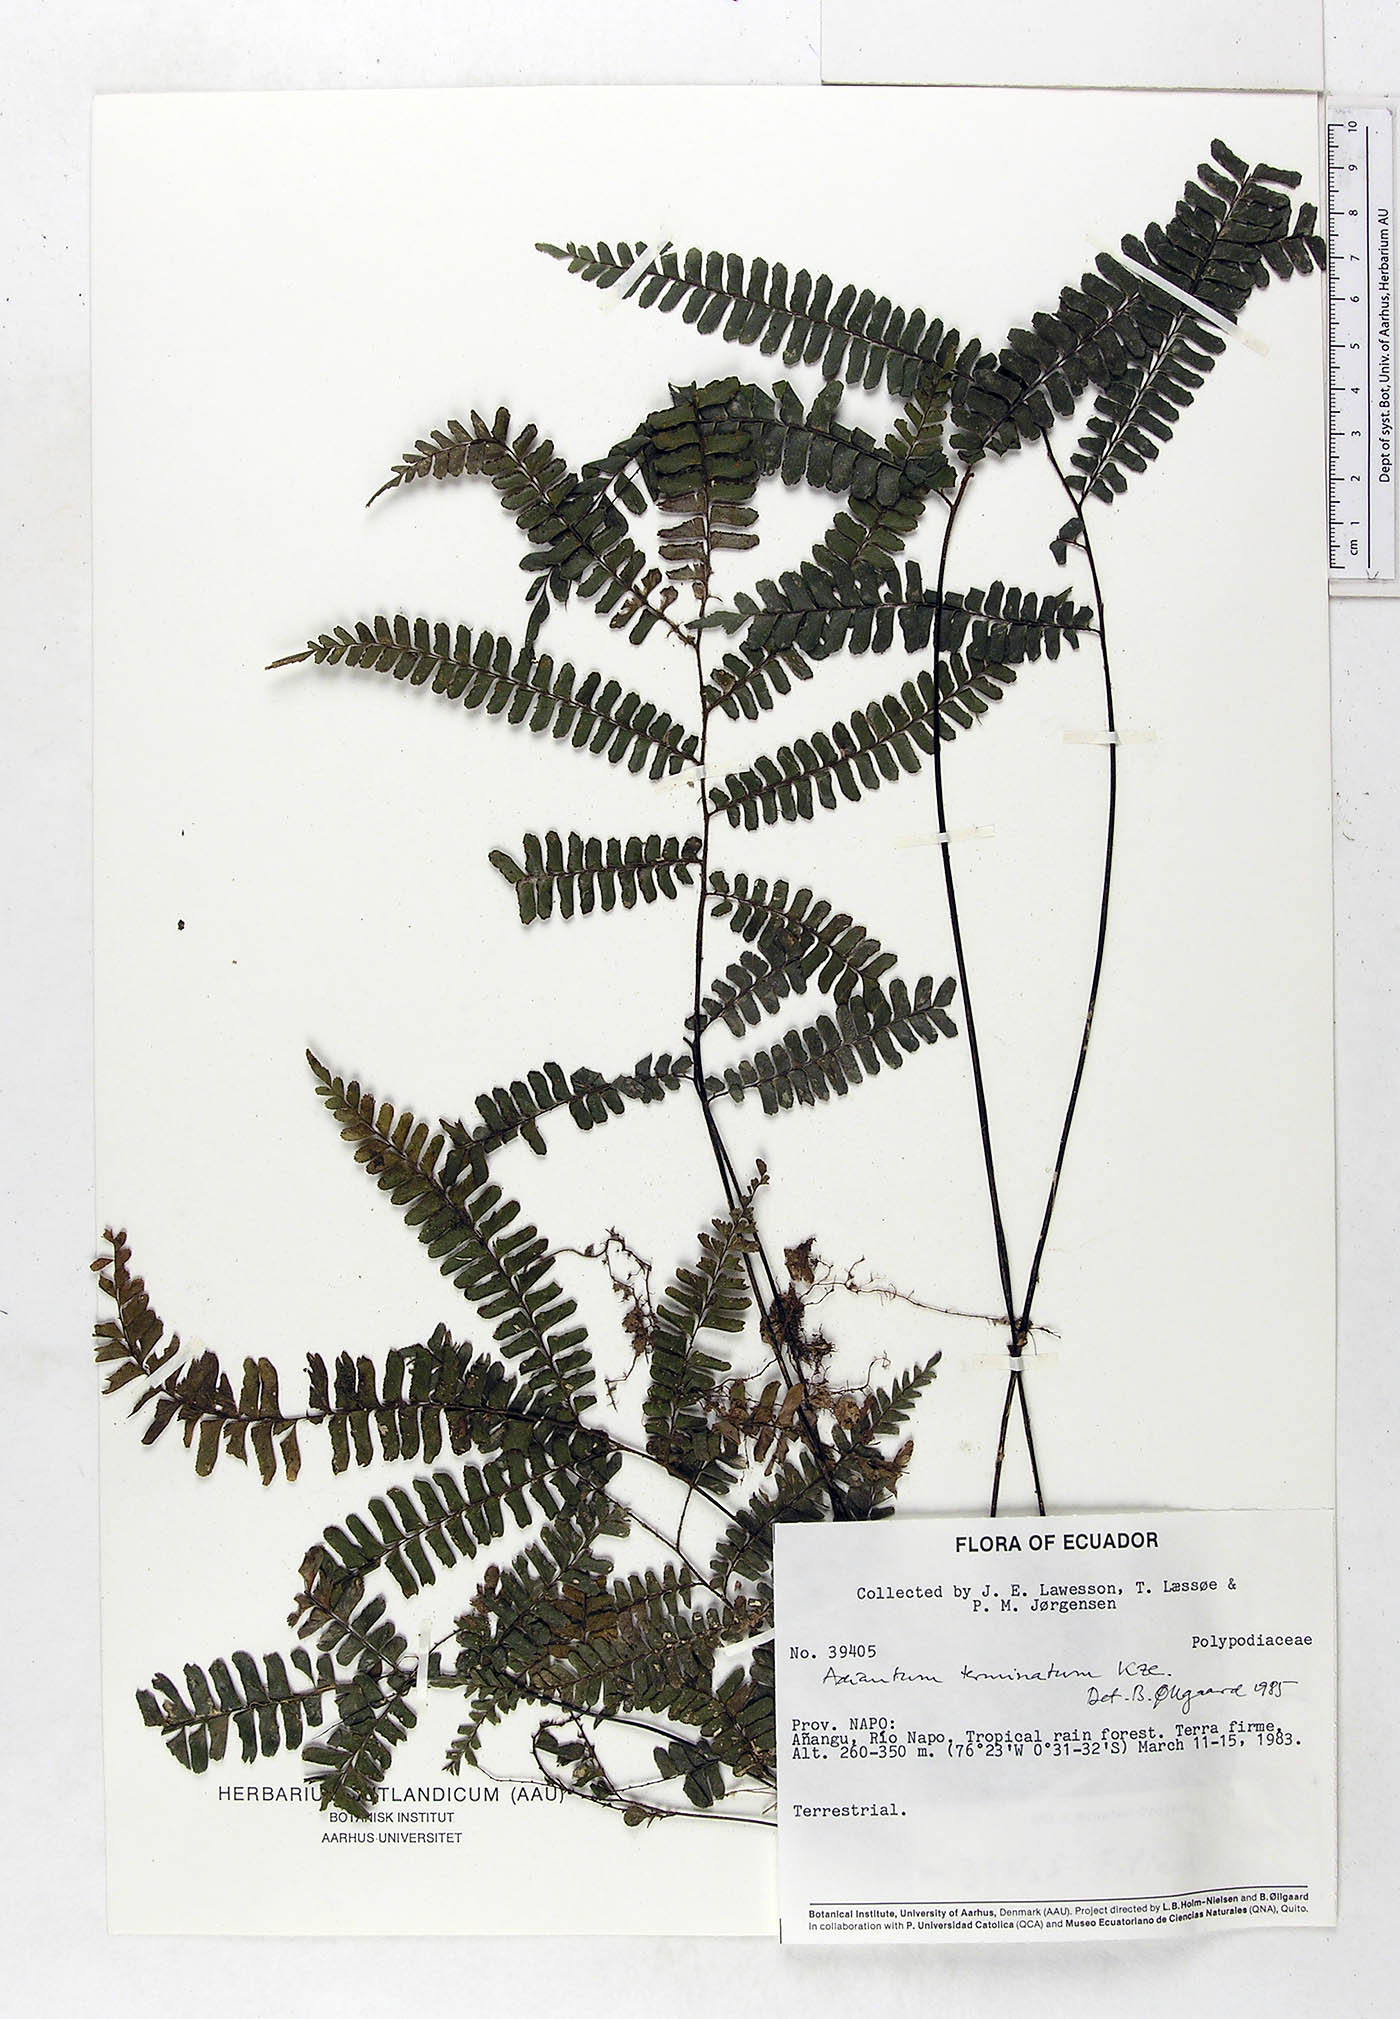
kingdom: Plantae
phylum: Tracheophyta
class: Polypodiopsida
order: Polypodiales
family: Pteridaceae
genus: Adiantum
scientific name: Adiantum terminatum
